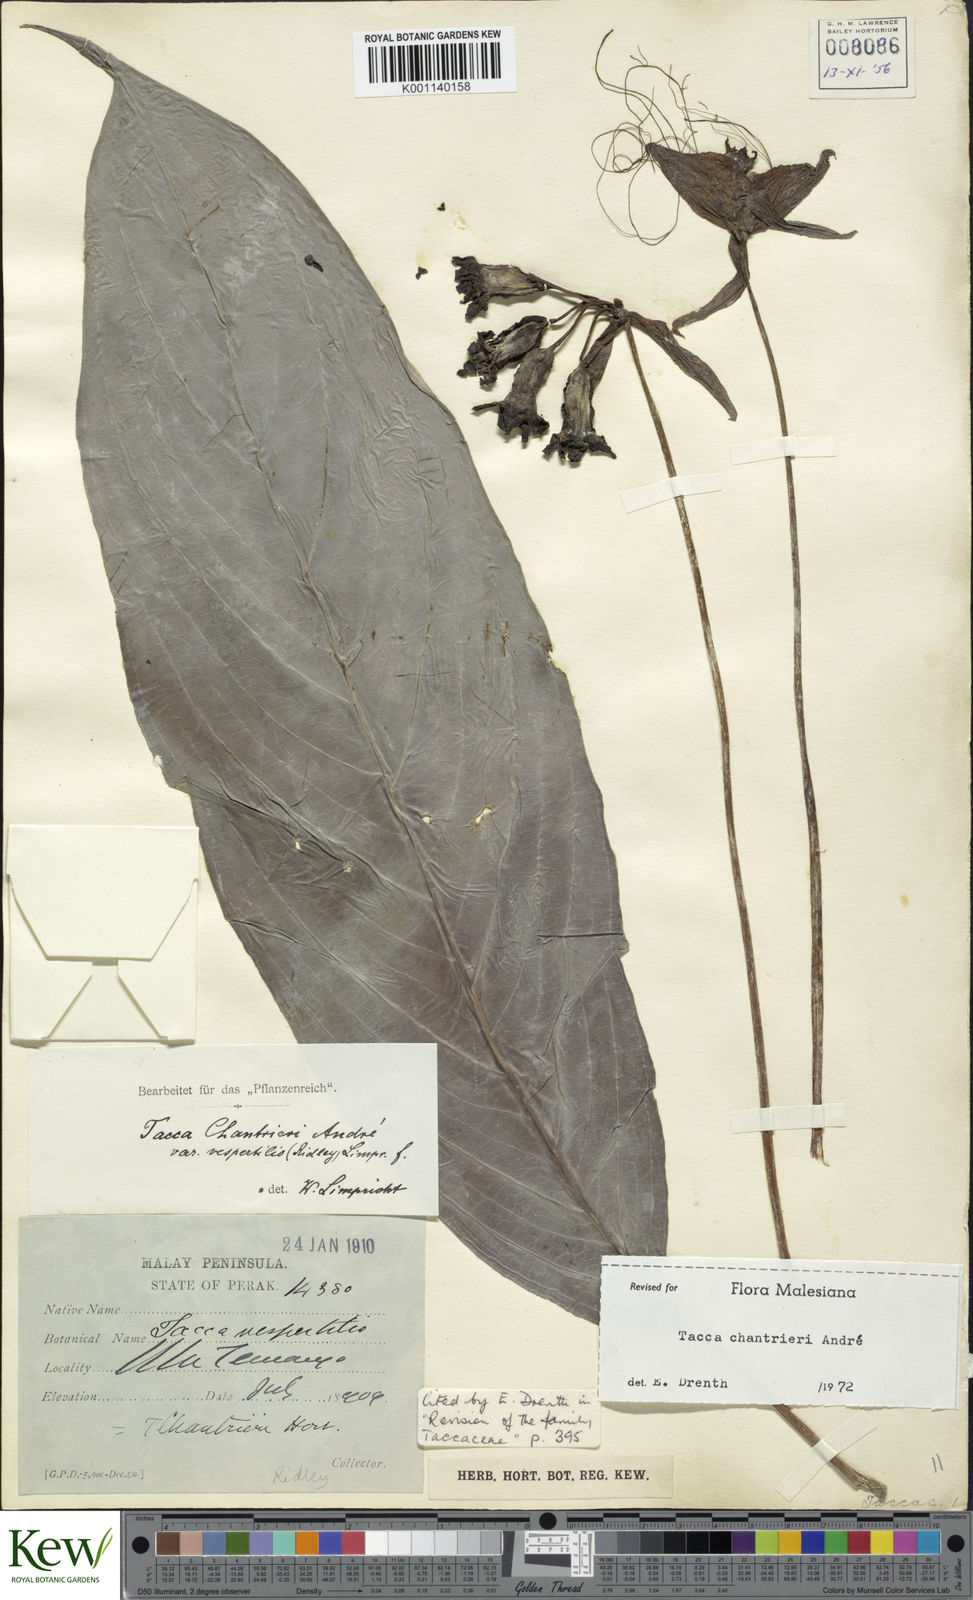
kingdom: Plantae
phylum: Tracheophyta
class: Liliopsida
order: Dioscoreales
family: Dioscoreaceae
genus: Tacca
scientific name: Tacca
